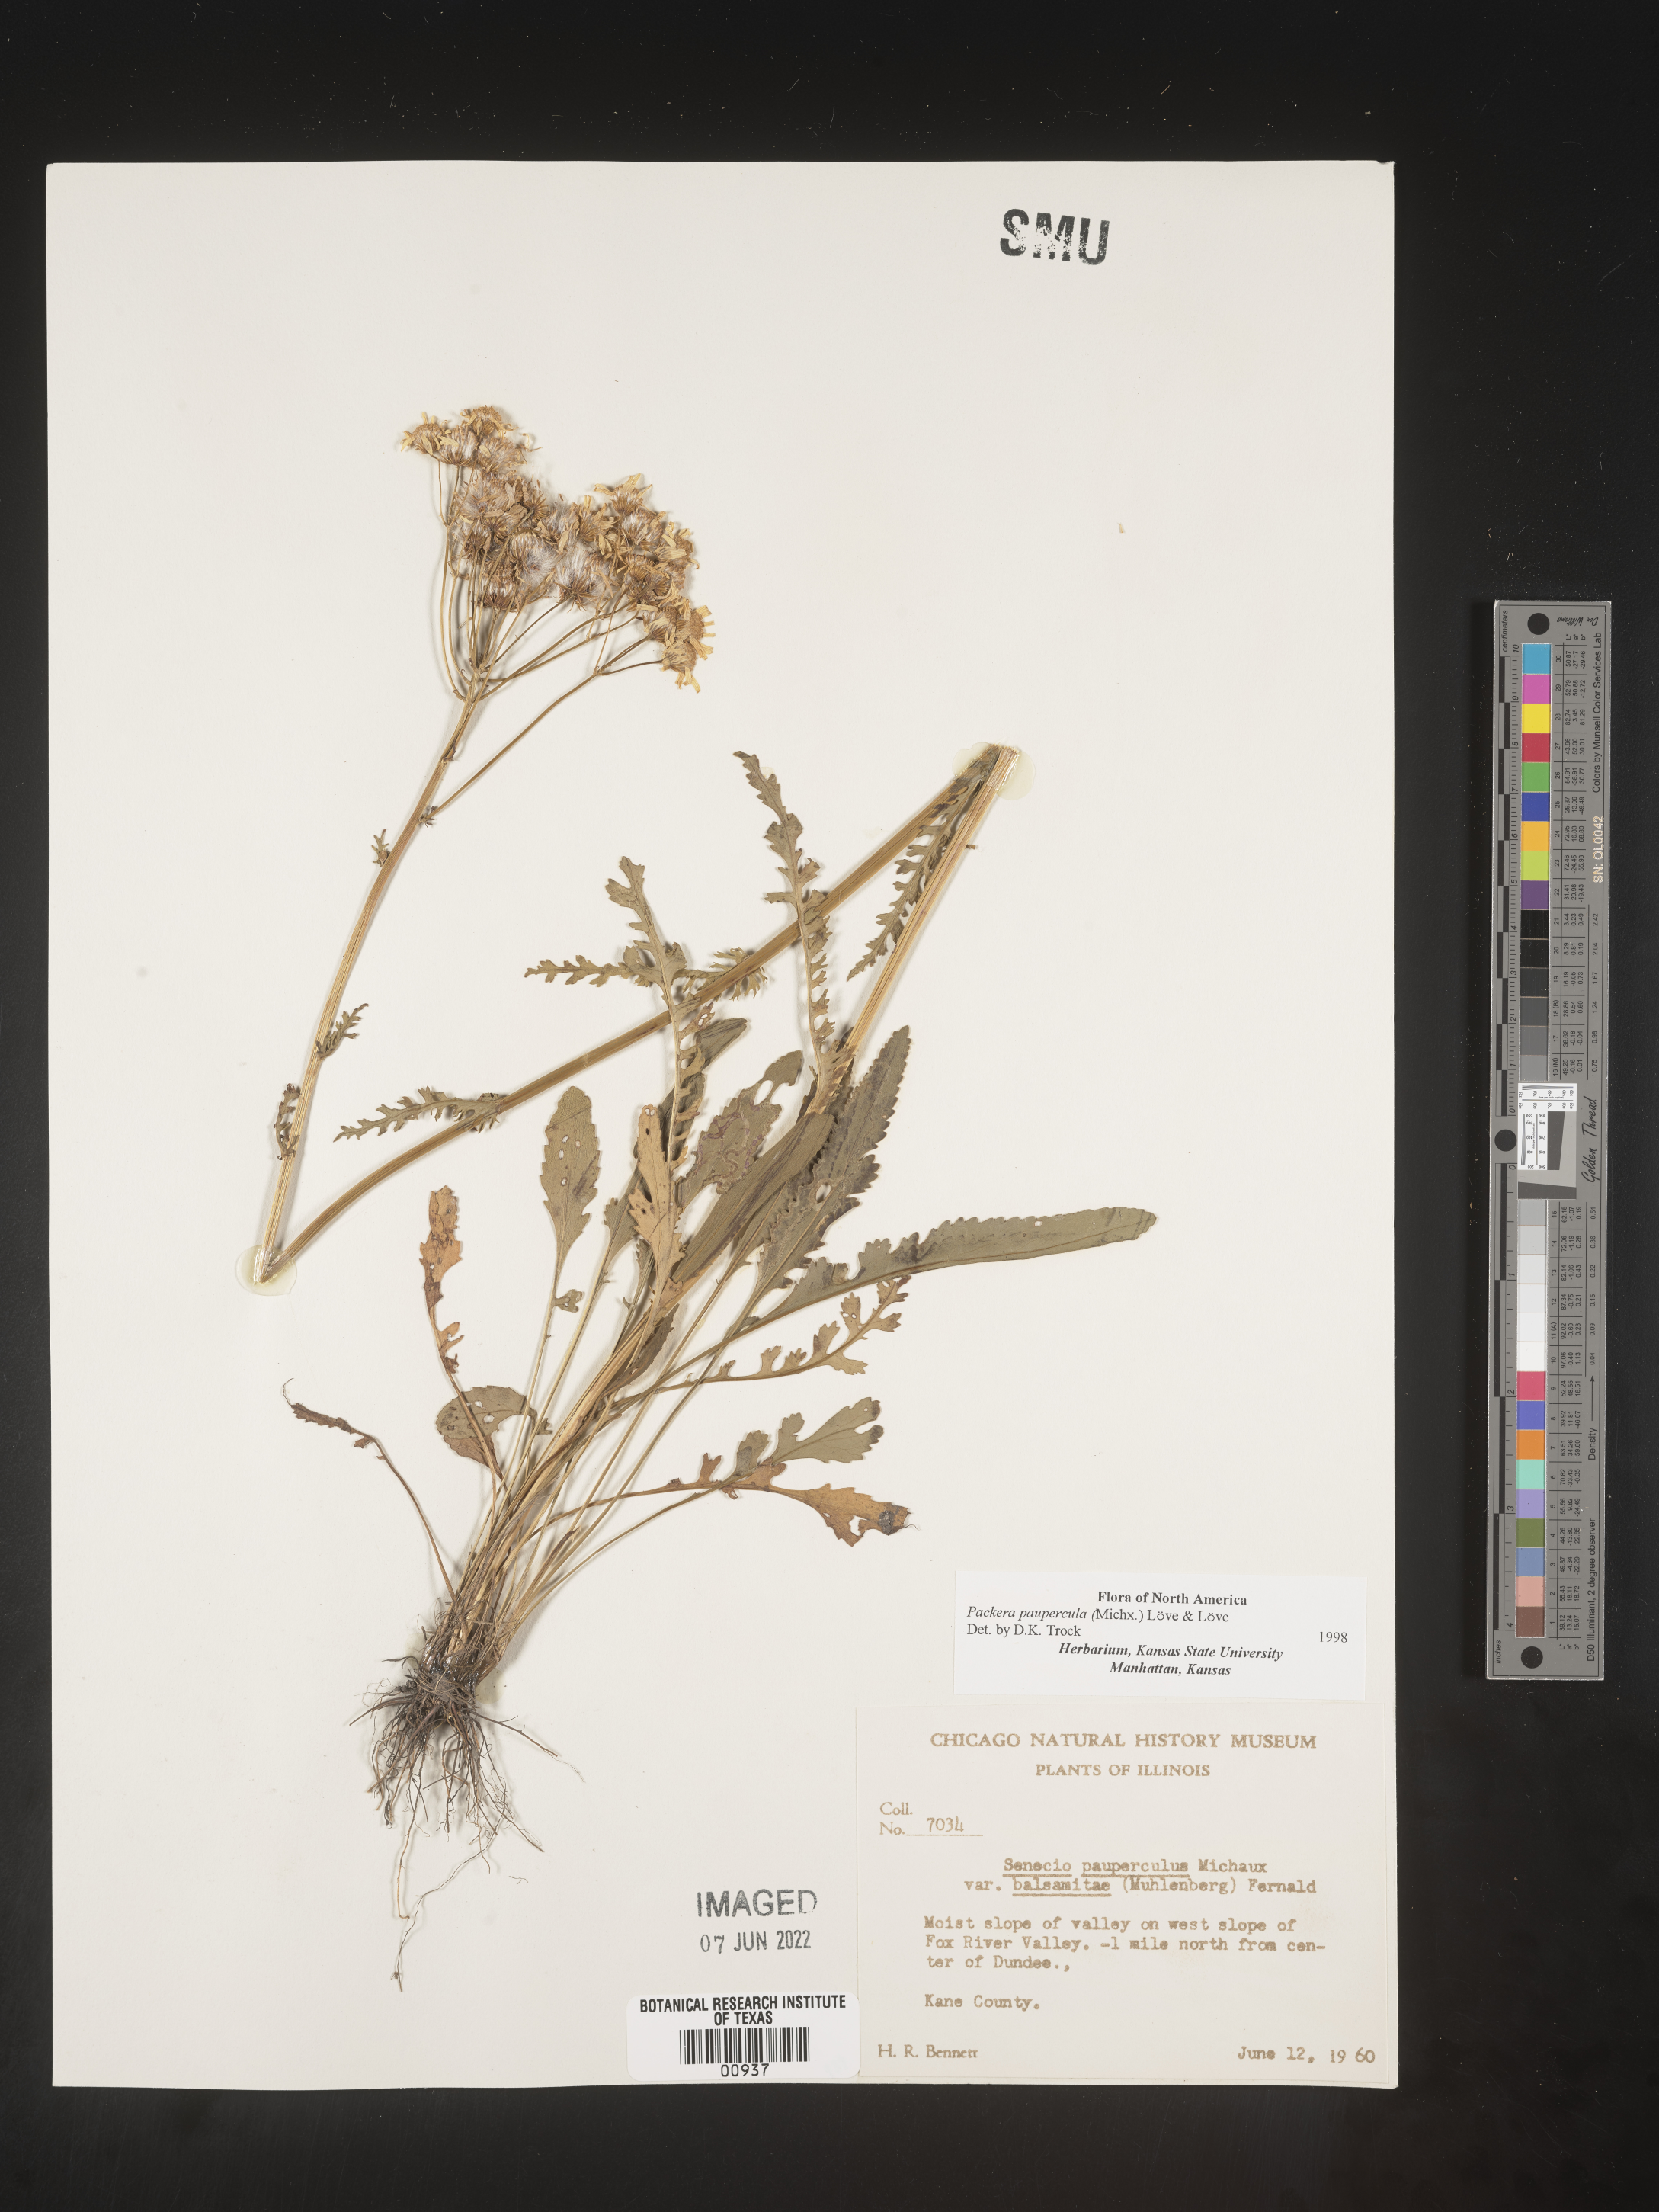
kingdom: Plantae
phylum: Tracheophyta
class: Magnoliopsida
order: Asterales
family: Asteraceae
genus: Packera
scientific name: Packera paupercula
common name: Balsam groundsel
